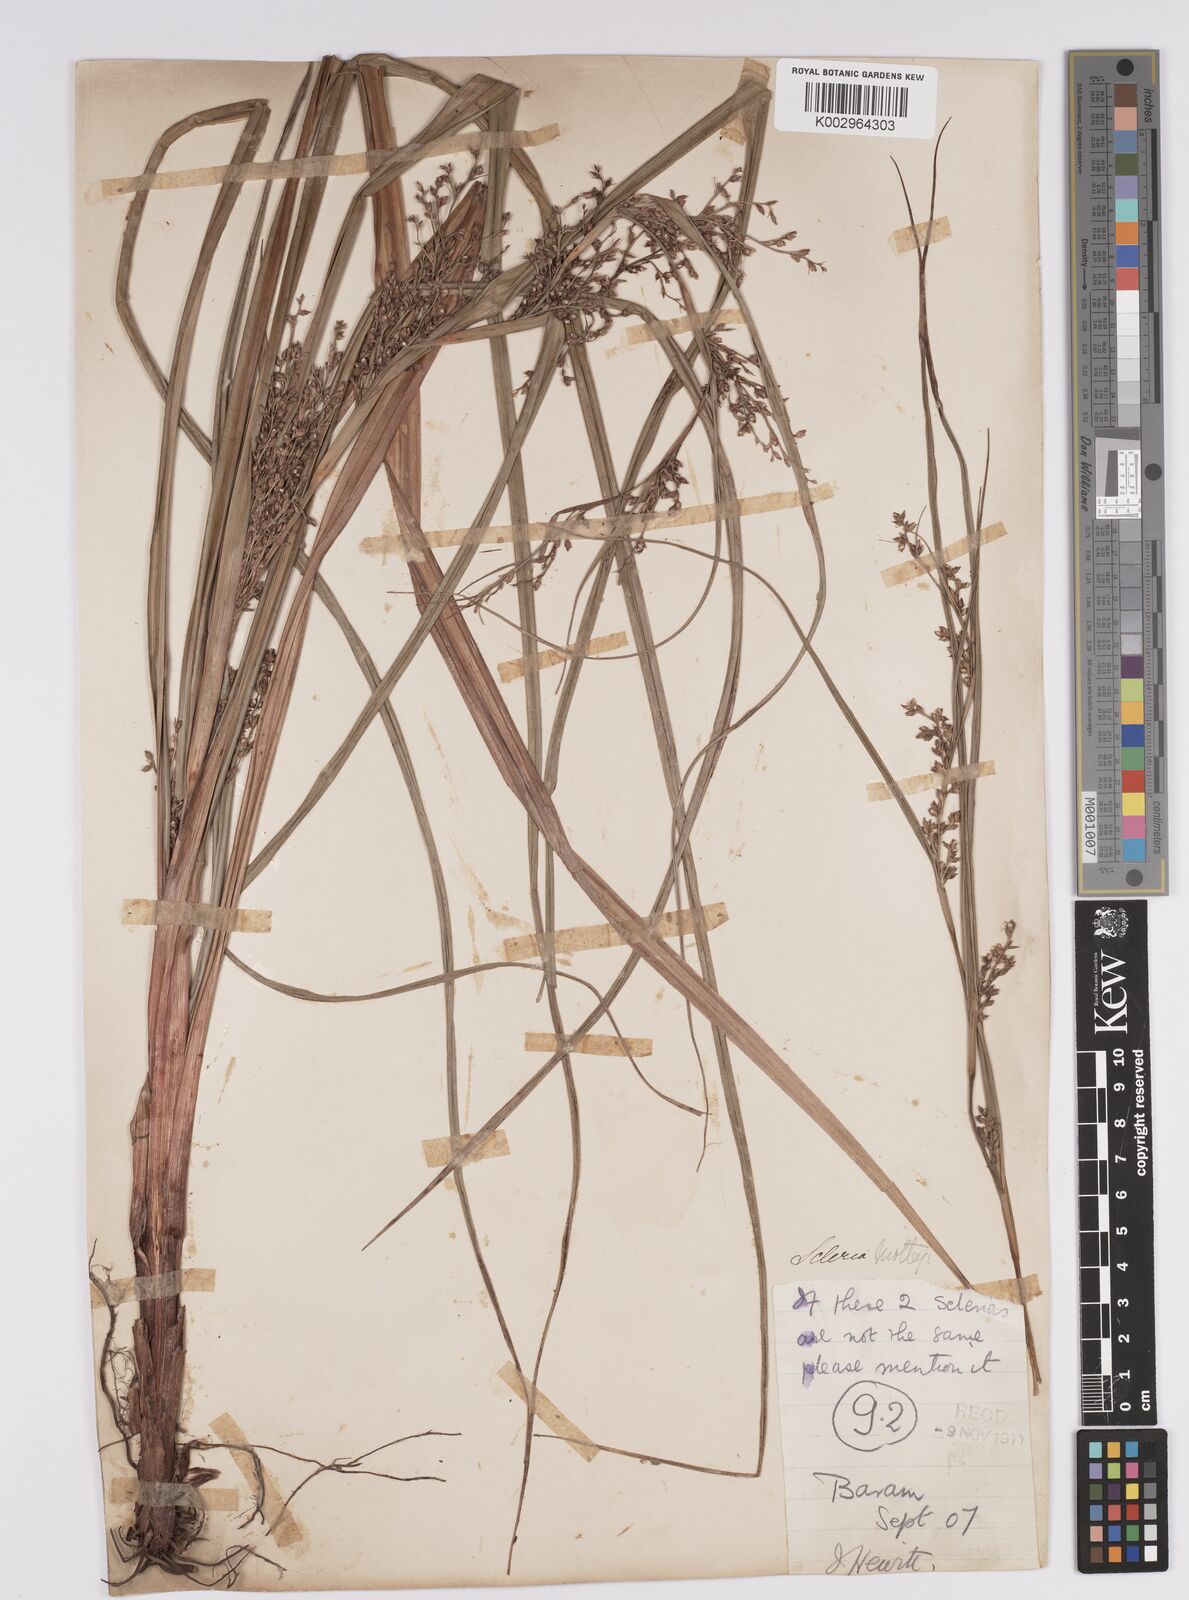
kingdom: Plantae
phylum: Tracheophyta
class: Liliopsida
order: Poales
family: Cyperaceae
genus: Scleria
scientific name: Scleria motleyi
